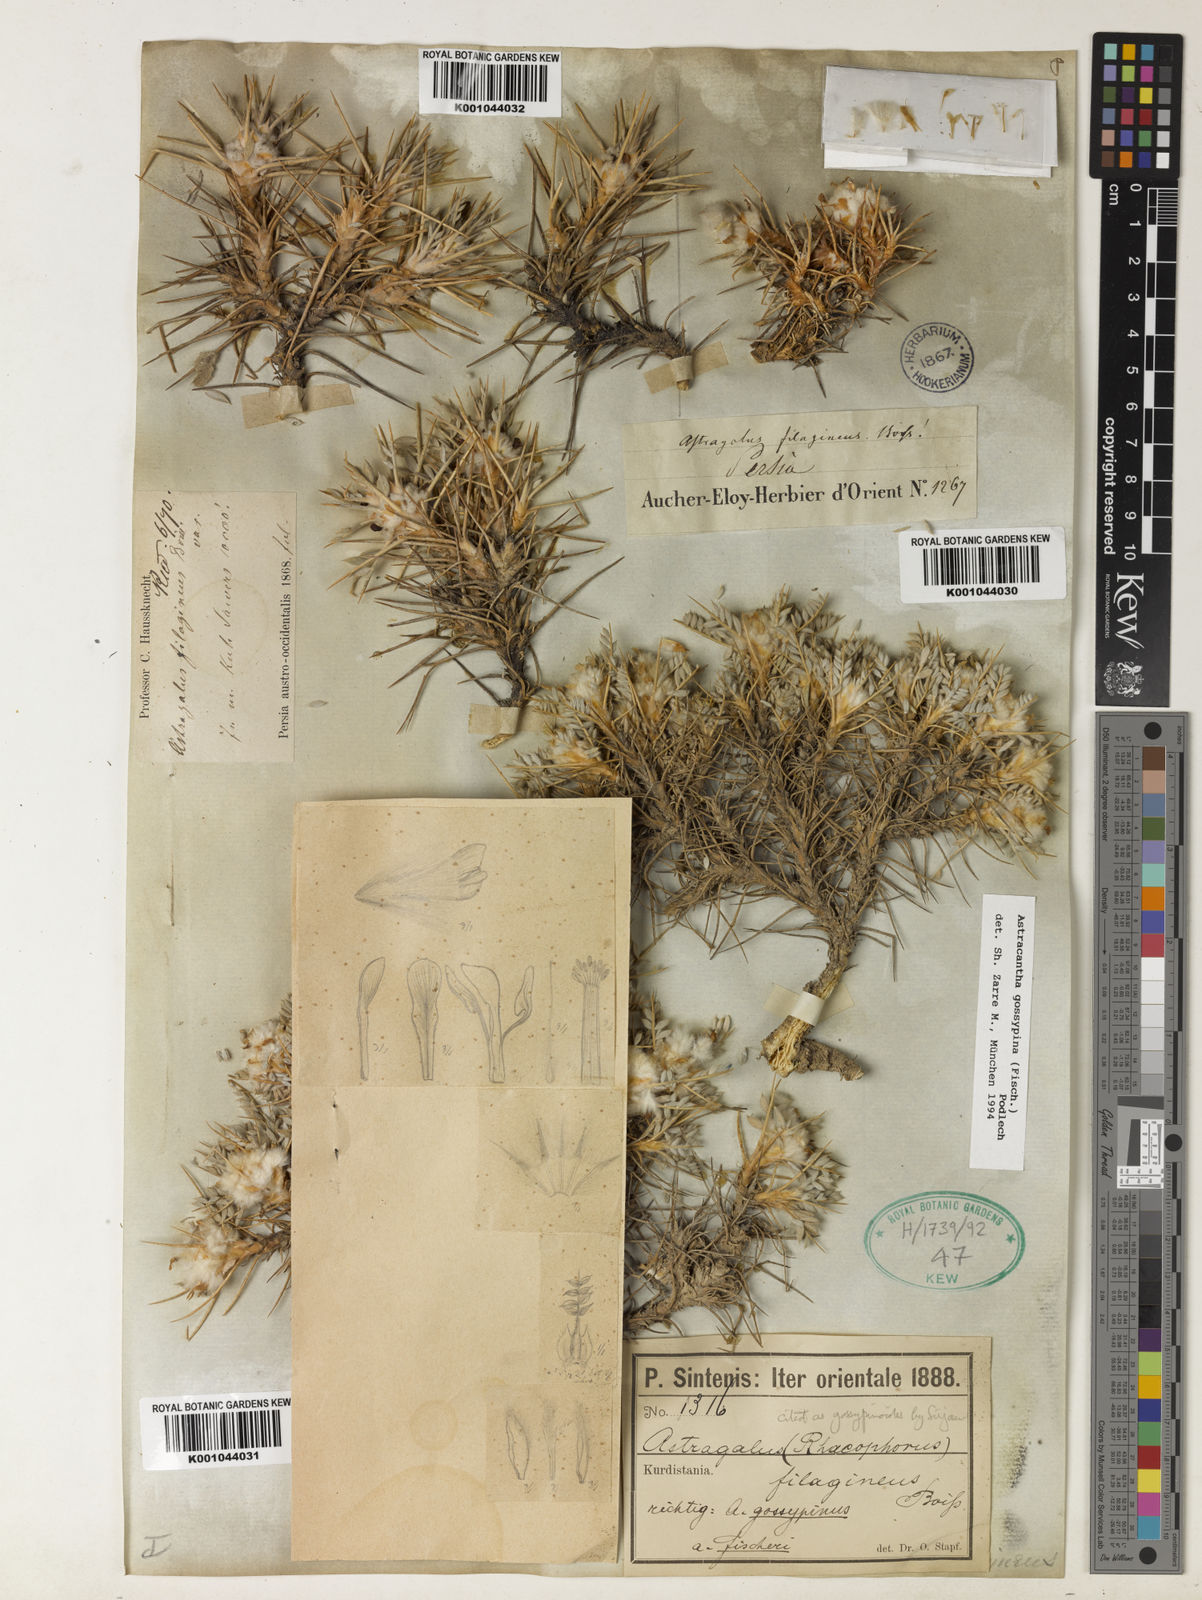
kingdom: Plantae
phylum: Tracheophyta
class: Magnoliopsida
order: Fabales
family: Fabaceae
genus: Astragalus
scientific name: Astragalus gossypinus
